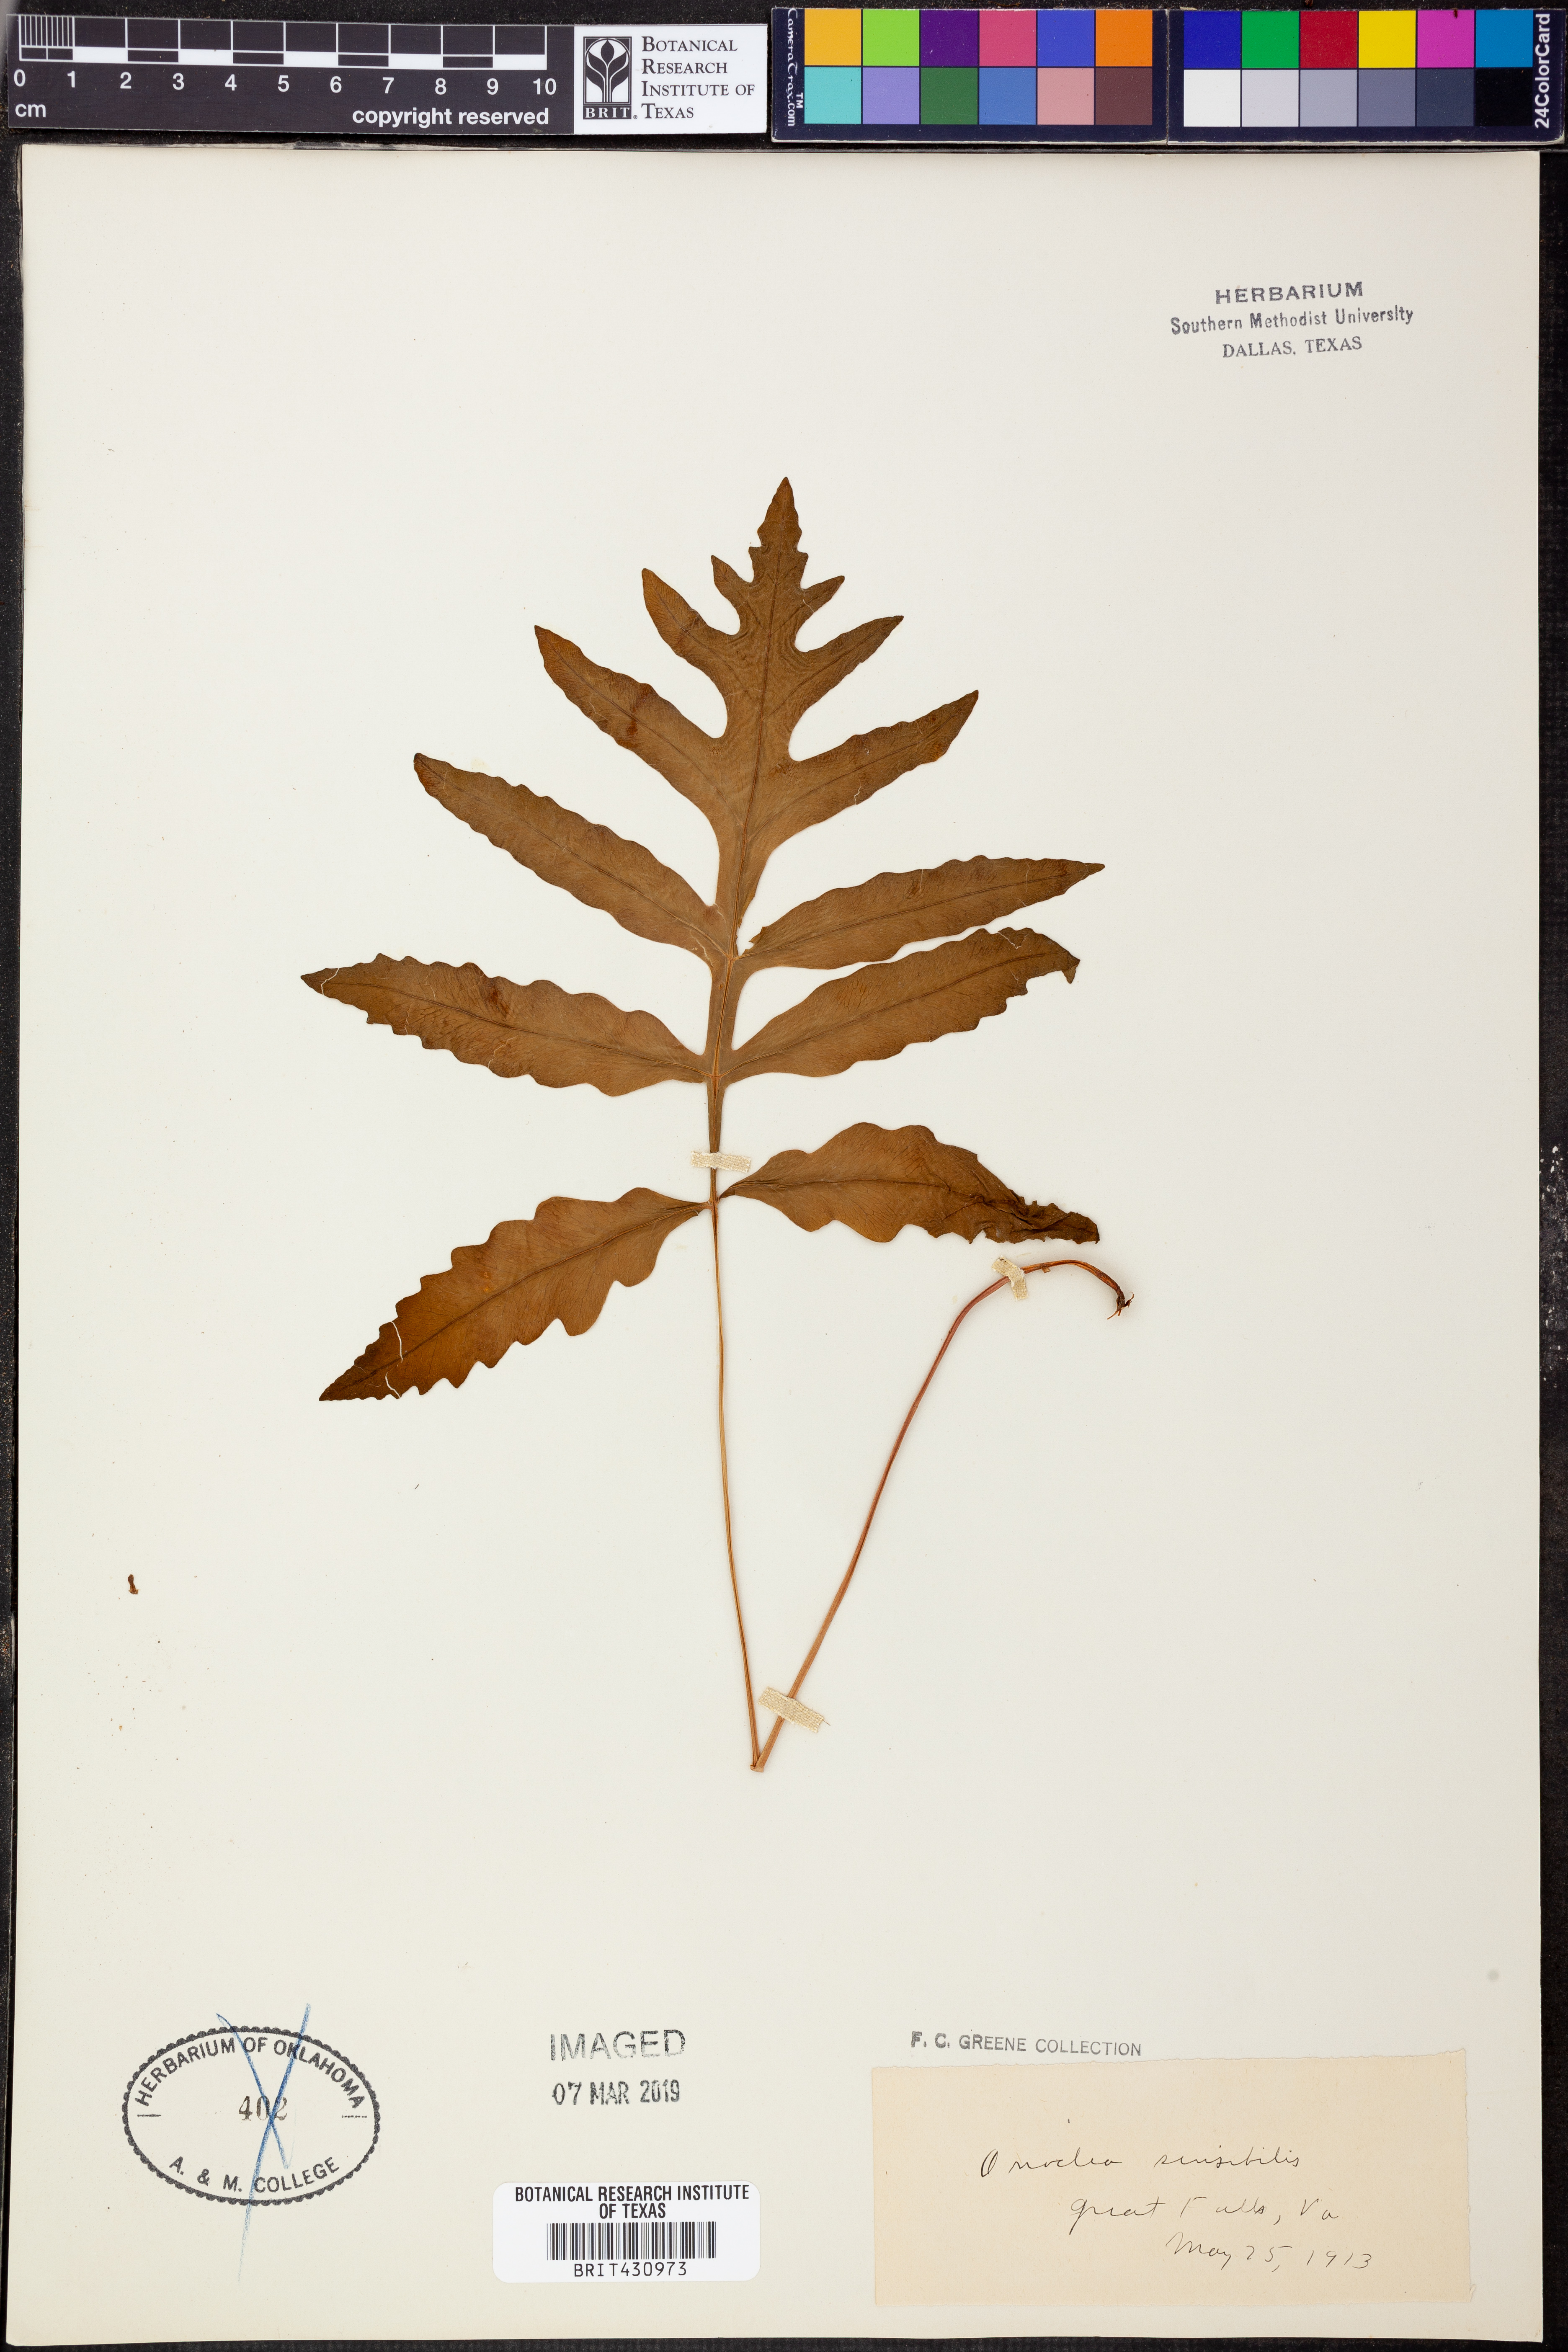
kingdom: Plantae
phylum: Tracheophyta
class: Polypodiopsida
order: Polypodiales
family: Onocleaceae
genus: Onoclea
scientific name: Onoclea sensibilis
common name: Sensitive fern
